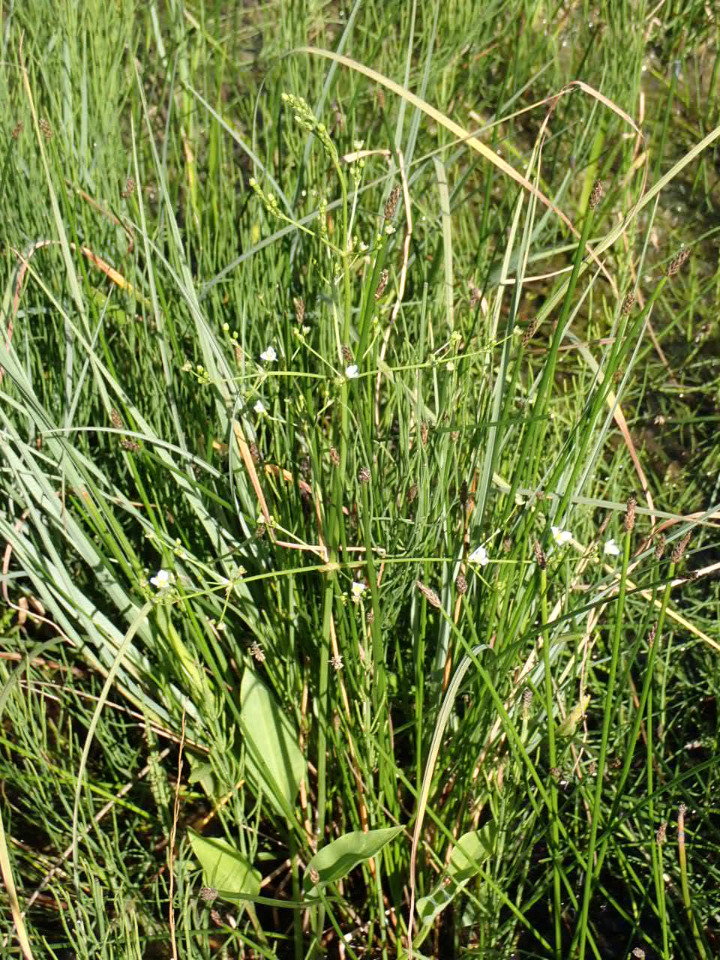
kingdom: Plantae
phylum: Tracheophyta
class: Liliopsida
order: Alismatales
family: Alismataceae
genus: Alisma
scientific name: Alisma plantago-aquatica
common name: Vejbred-skeblad
